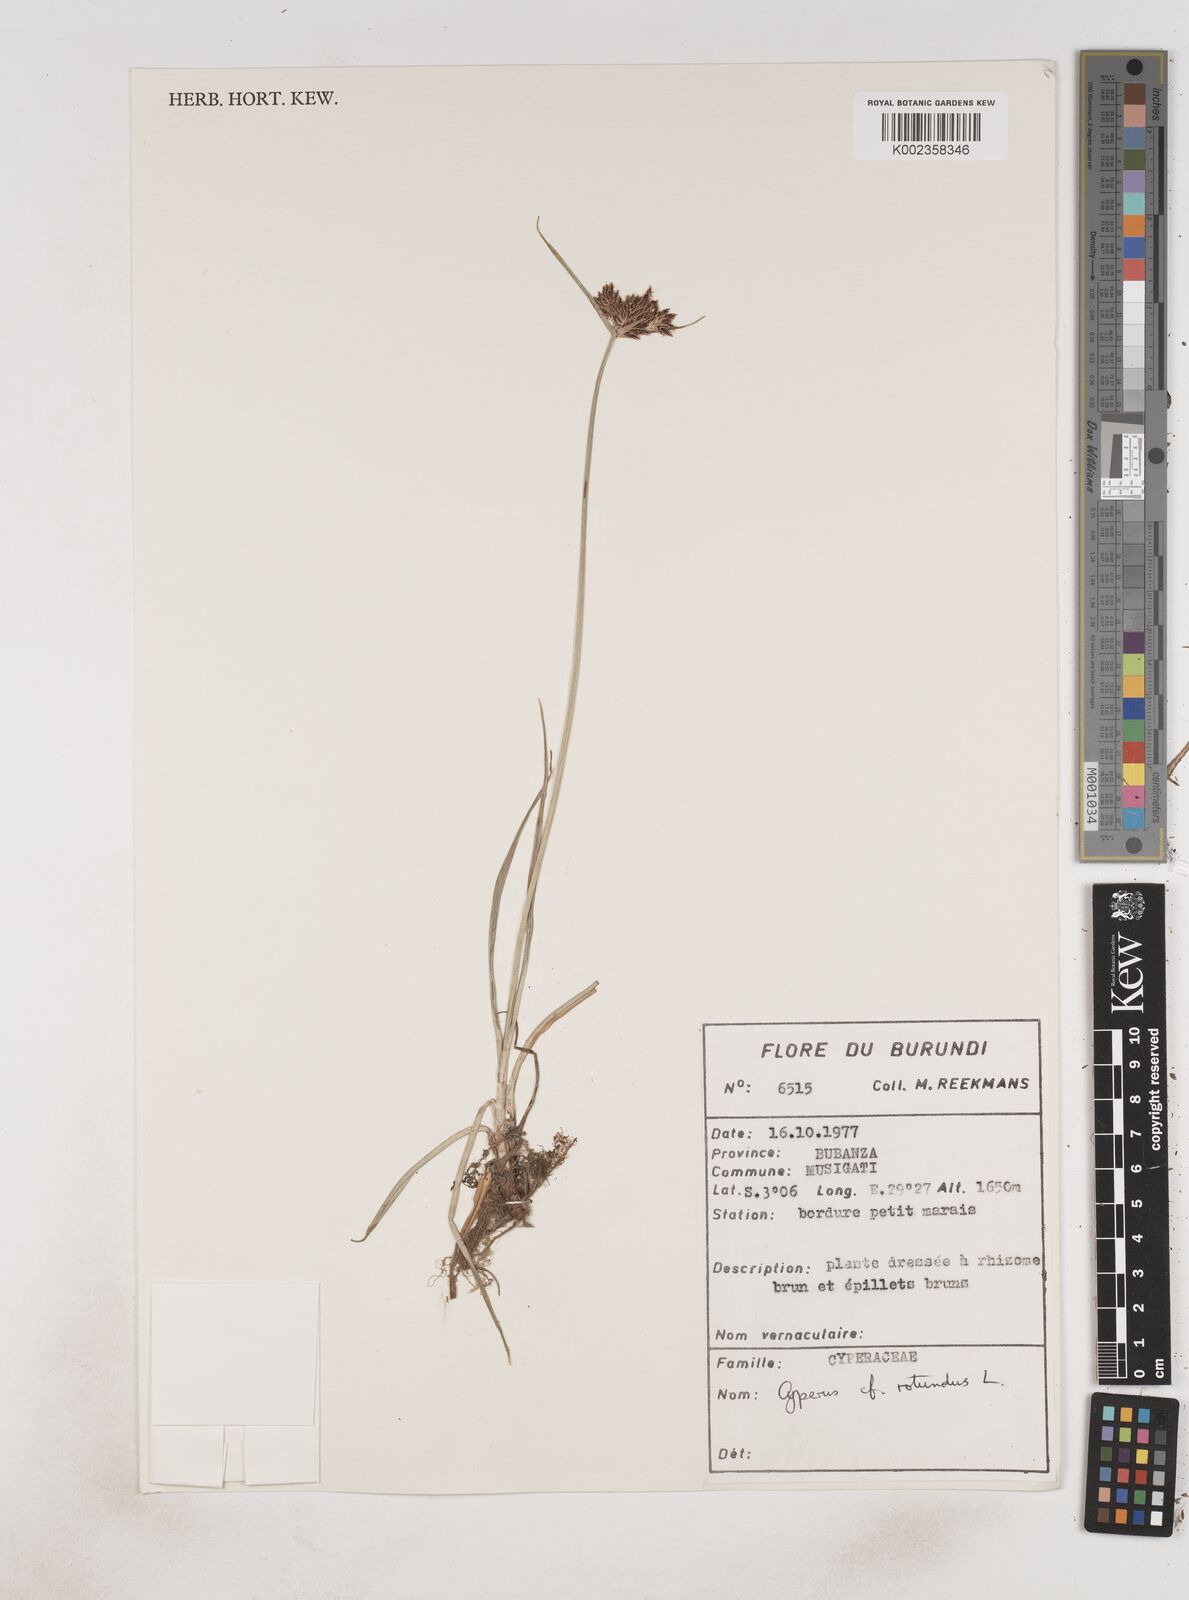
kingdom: Plantae
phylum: Tracheophyta
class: Liliopsida
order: Poales
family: Cyperaceae
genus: Cyperus
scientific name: Cyperus rotundus
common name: Nutgrass
